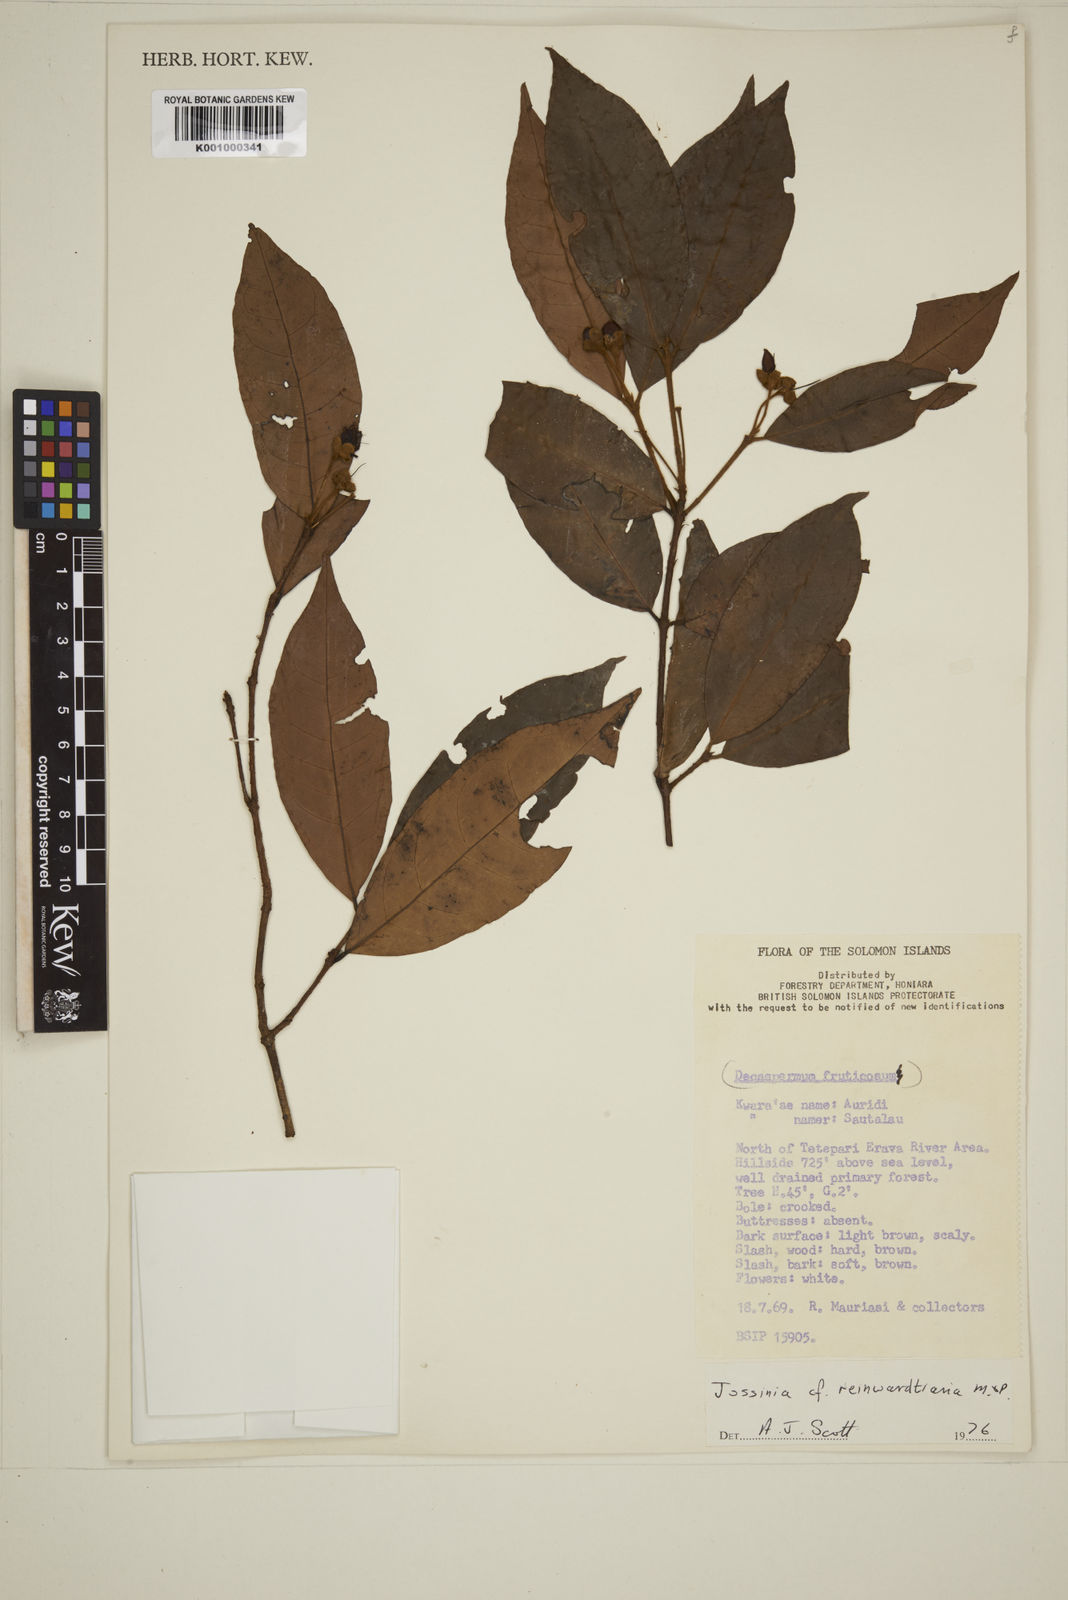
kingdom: Plantae
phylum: Tracheophyta
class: Magnoliopsida
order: Myrtales
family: Myrtaceae
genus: Eugenia
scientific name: Eugenia reinwardtiana
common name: Cedar bay-cherry
